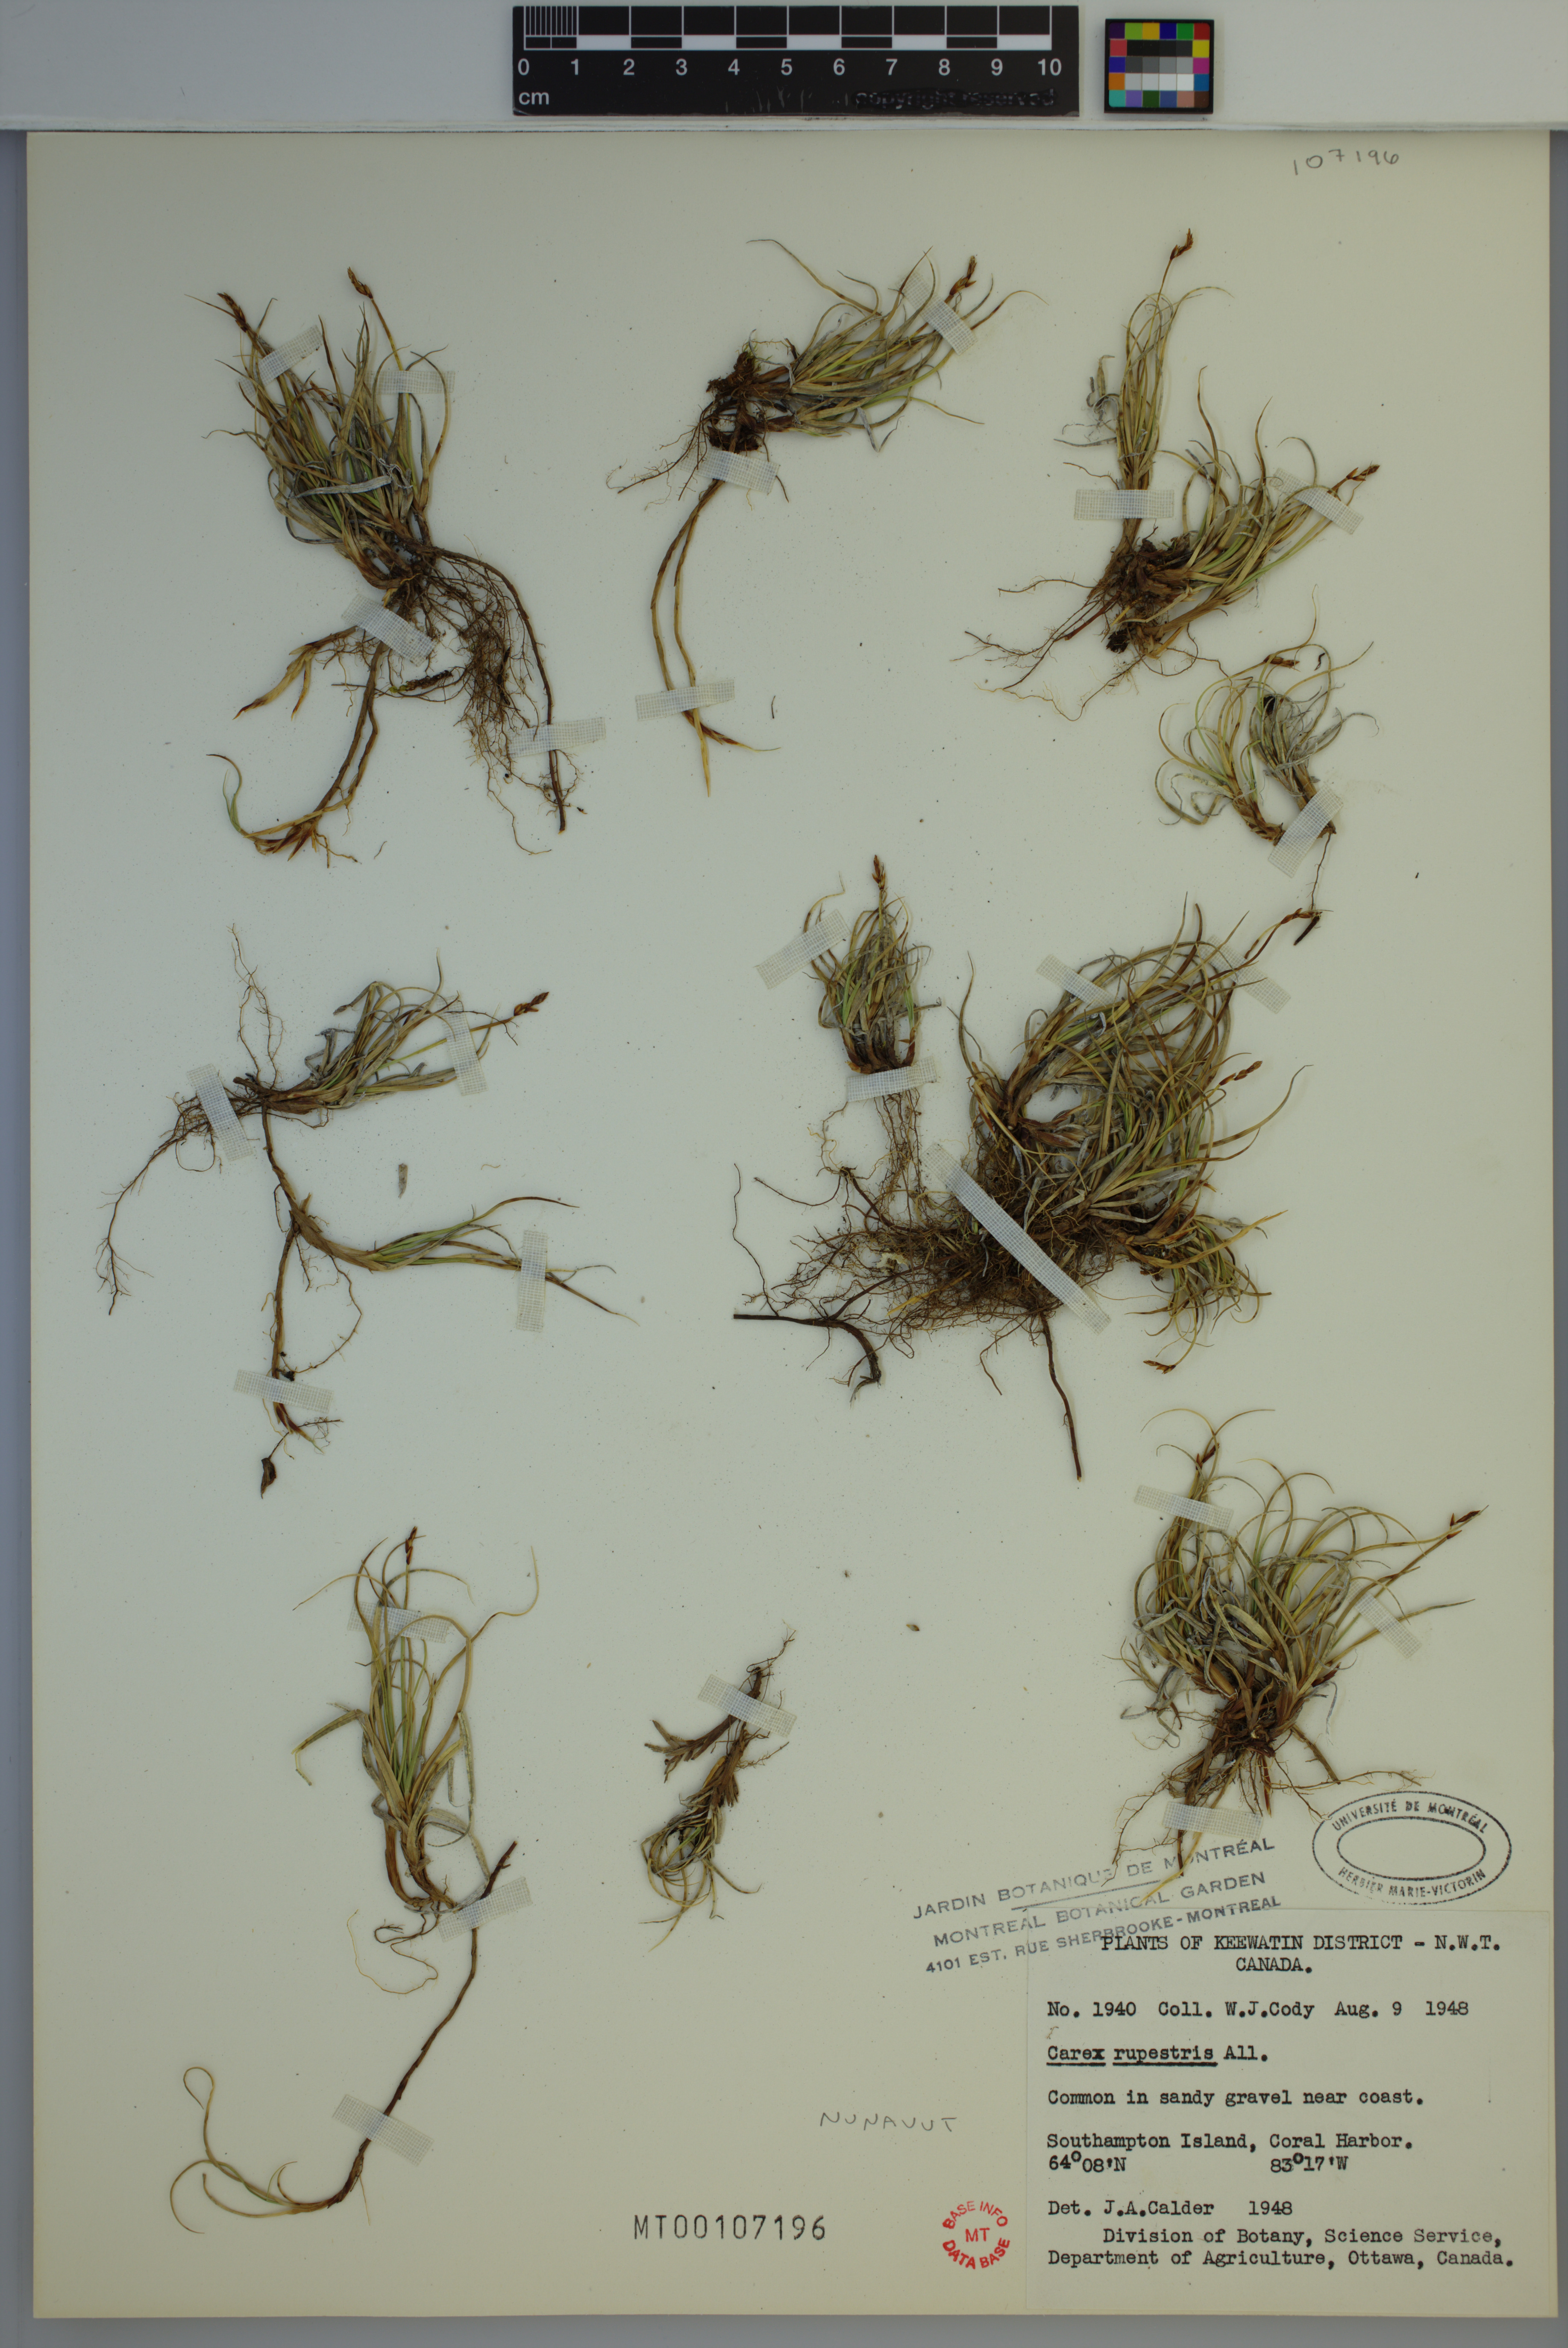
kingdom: Plantae
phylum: Tracheophyta
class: Liliopsida
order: Poales
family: Cyperaceae
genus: Carex
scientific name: Carex rupestris
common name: Rock sedge
